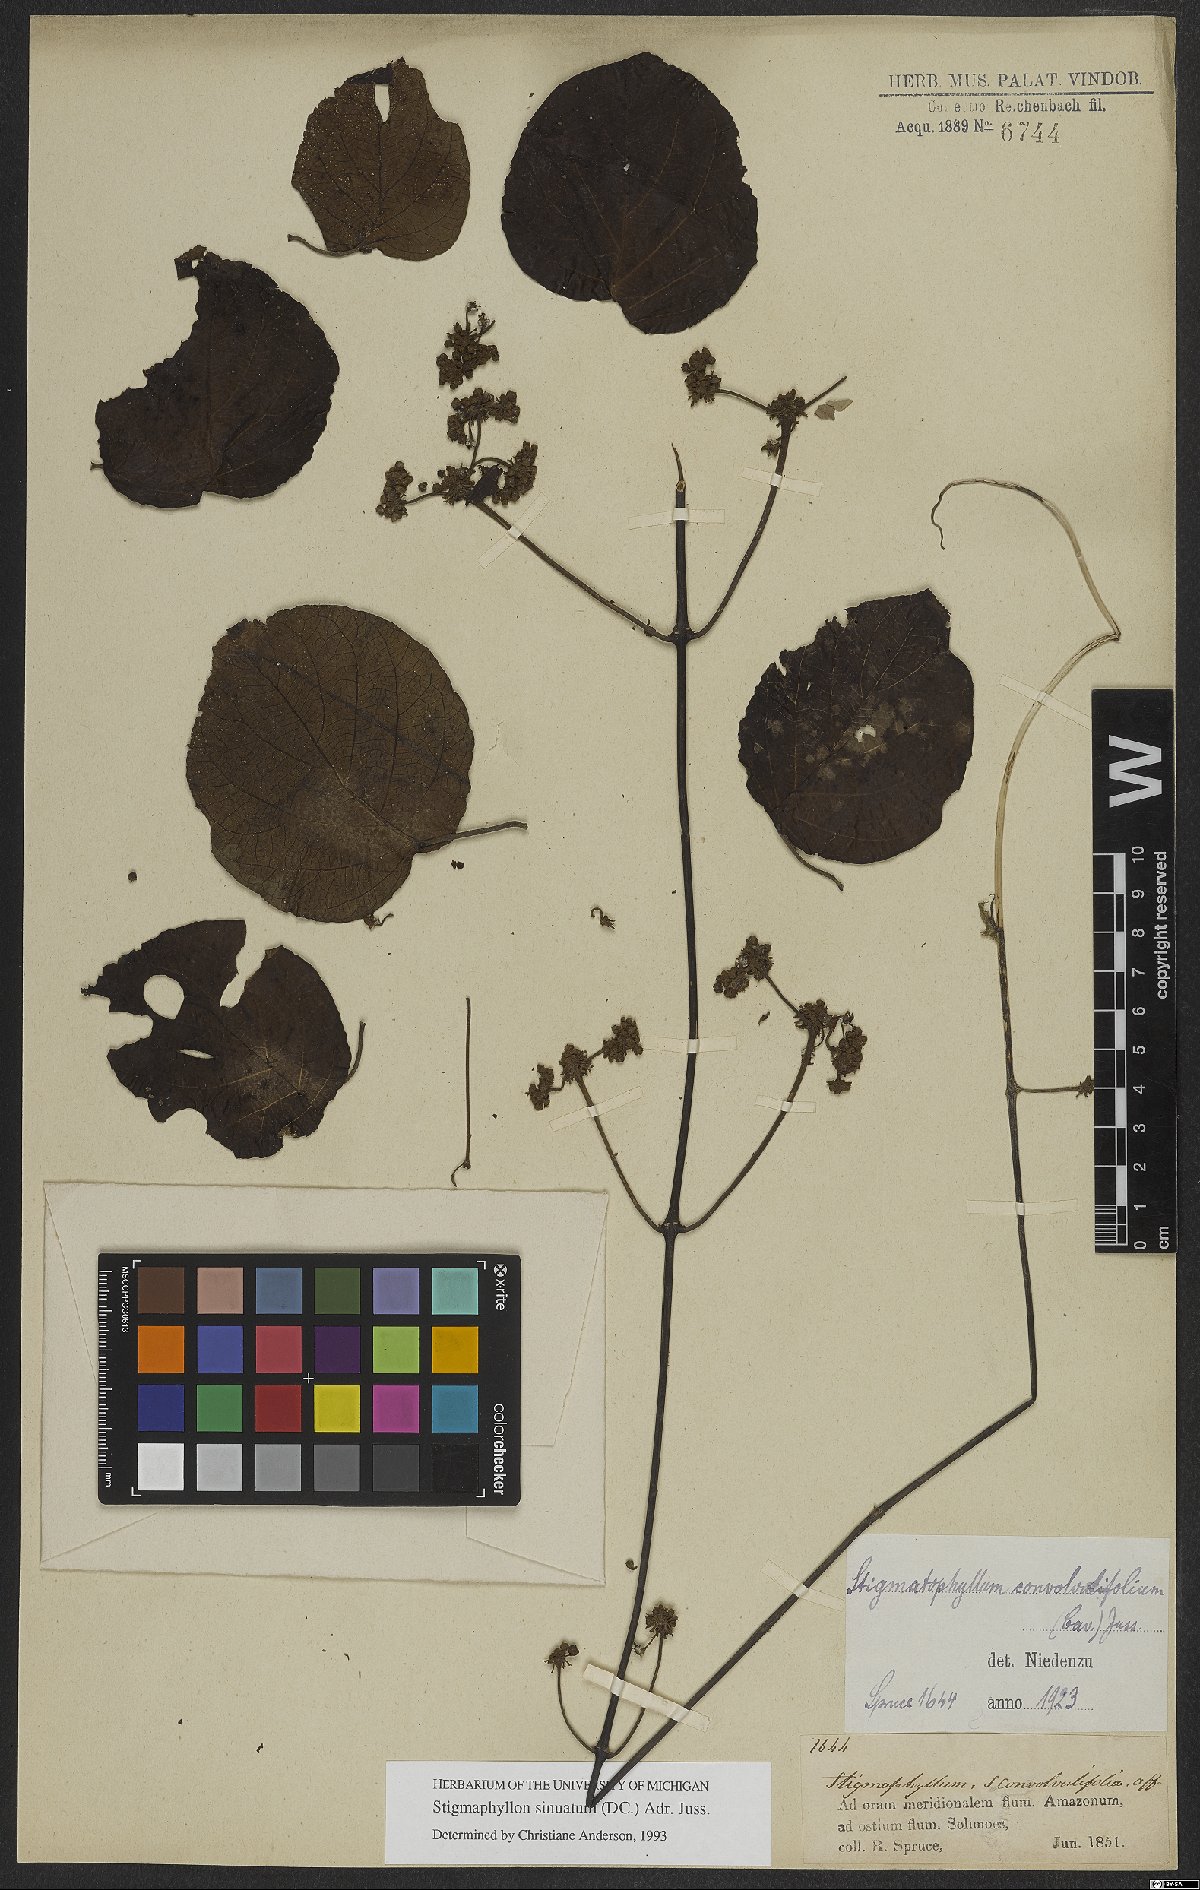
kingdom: Plantae
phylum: Tracheophyta
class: Magnoliopsida
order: Malpighiales
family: Malpighiaceae
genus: Stigmaphyllon
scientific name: Stigmaphyllon sinuatum
